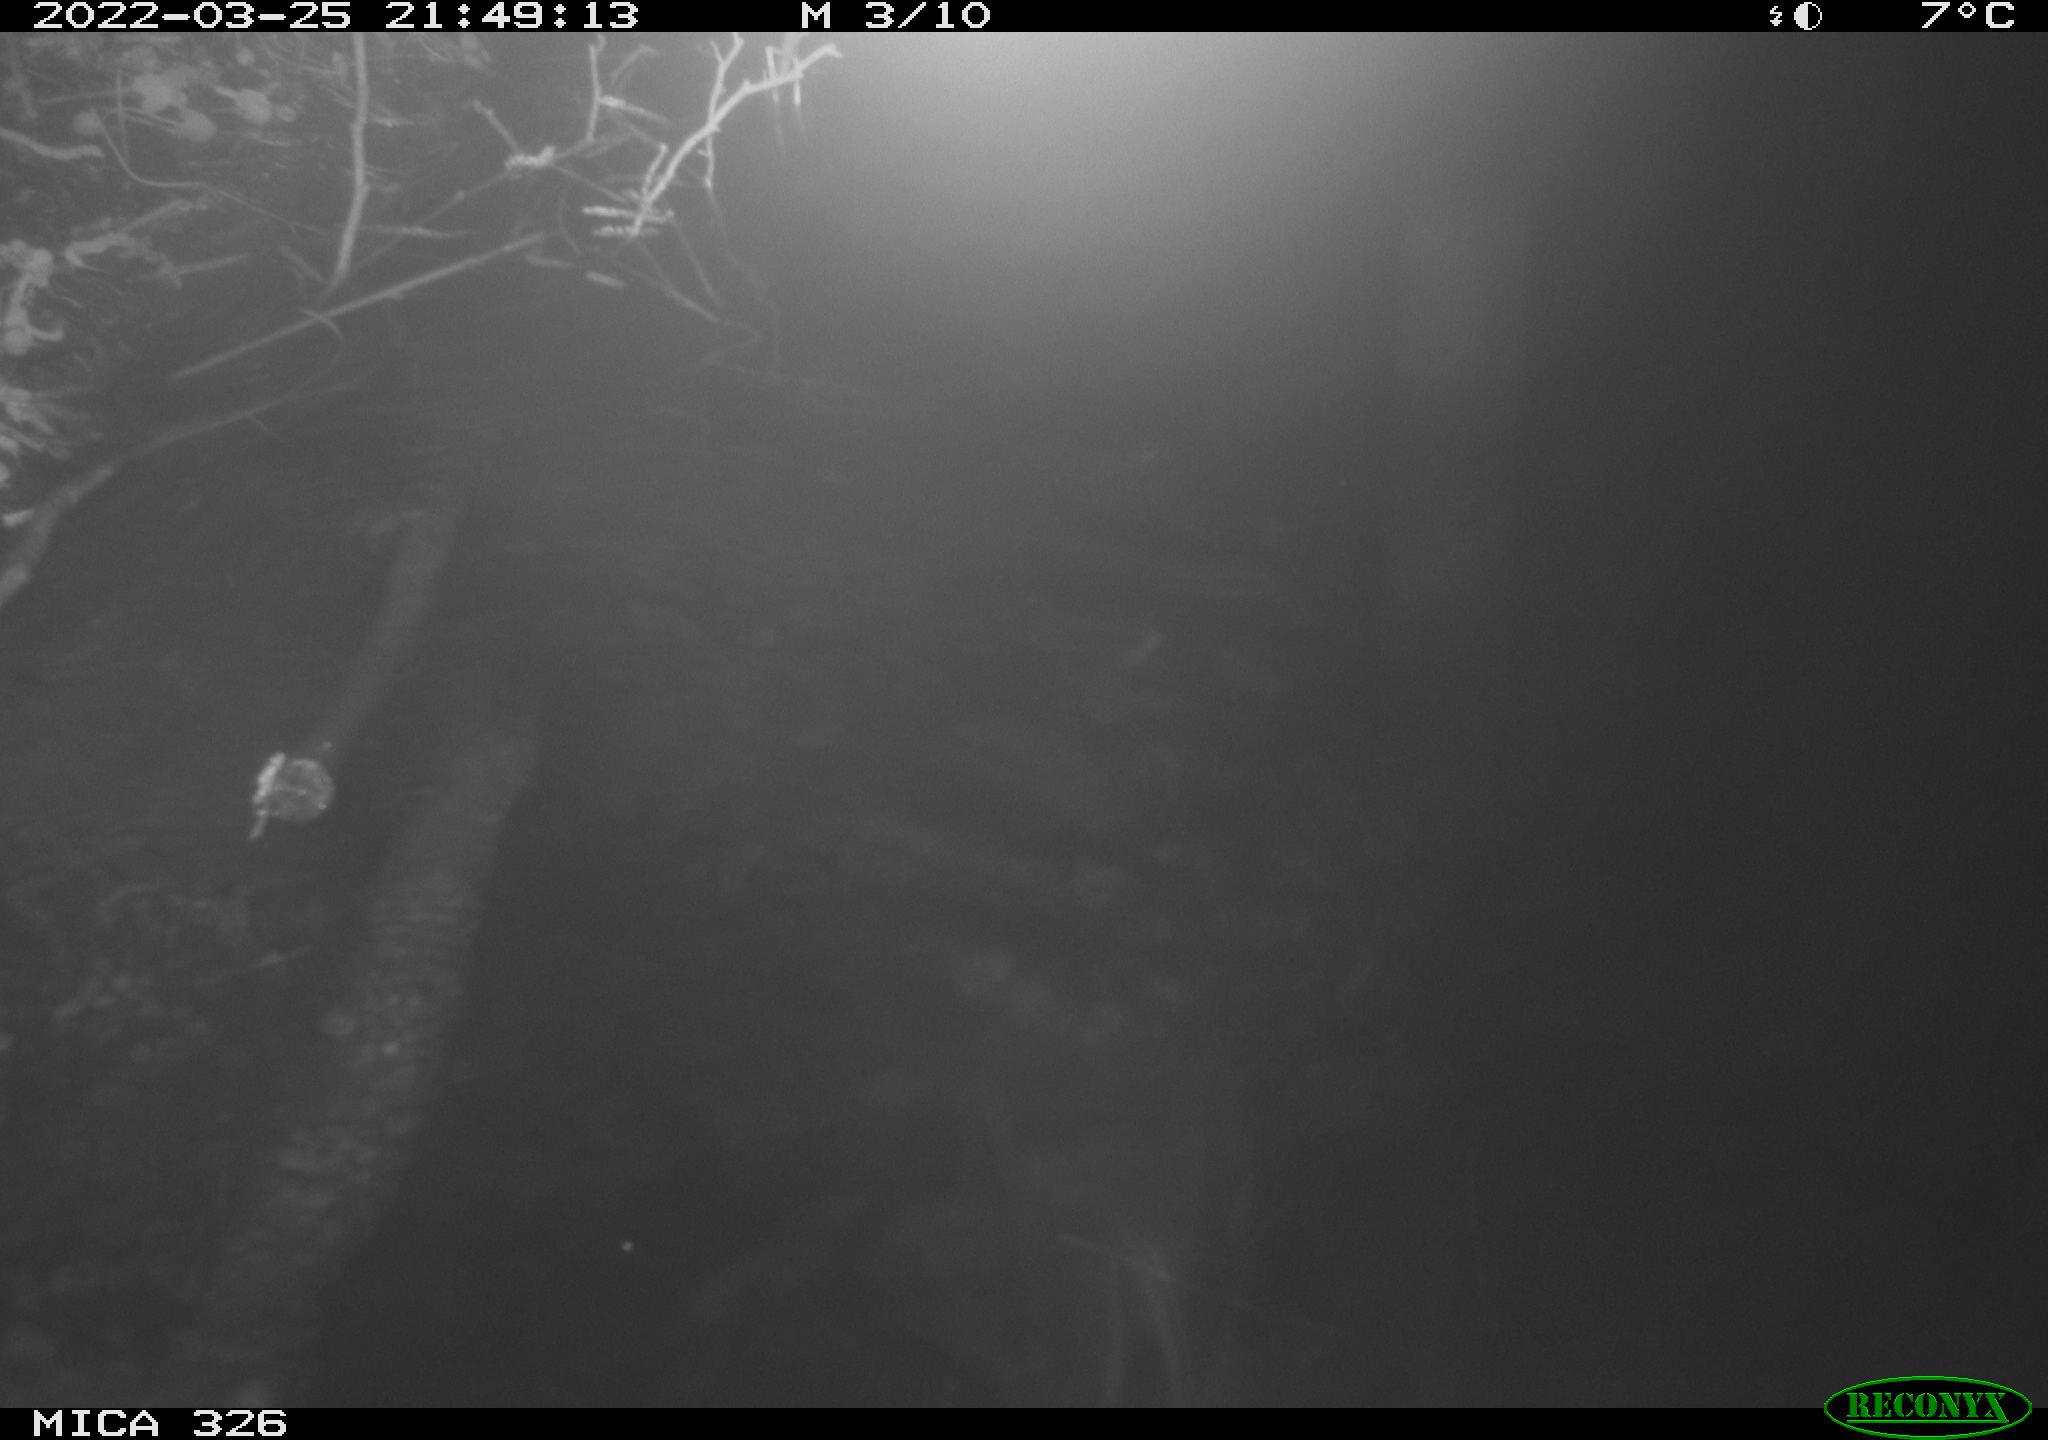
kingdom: Animalia
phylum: Chordata
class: Mammalia
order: Rodentia
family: Muridae
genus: Rattus
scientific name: Rattus norvegicus
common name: Brown rat
